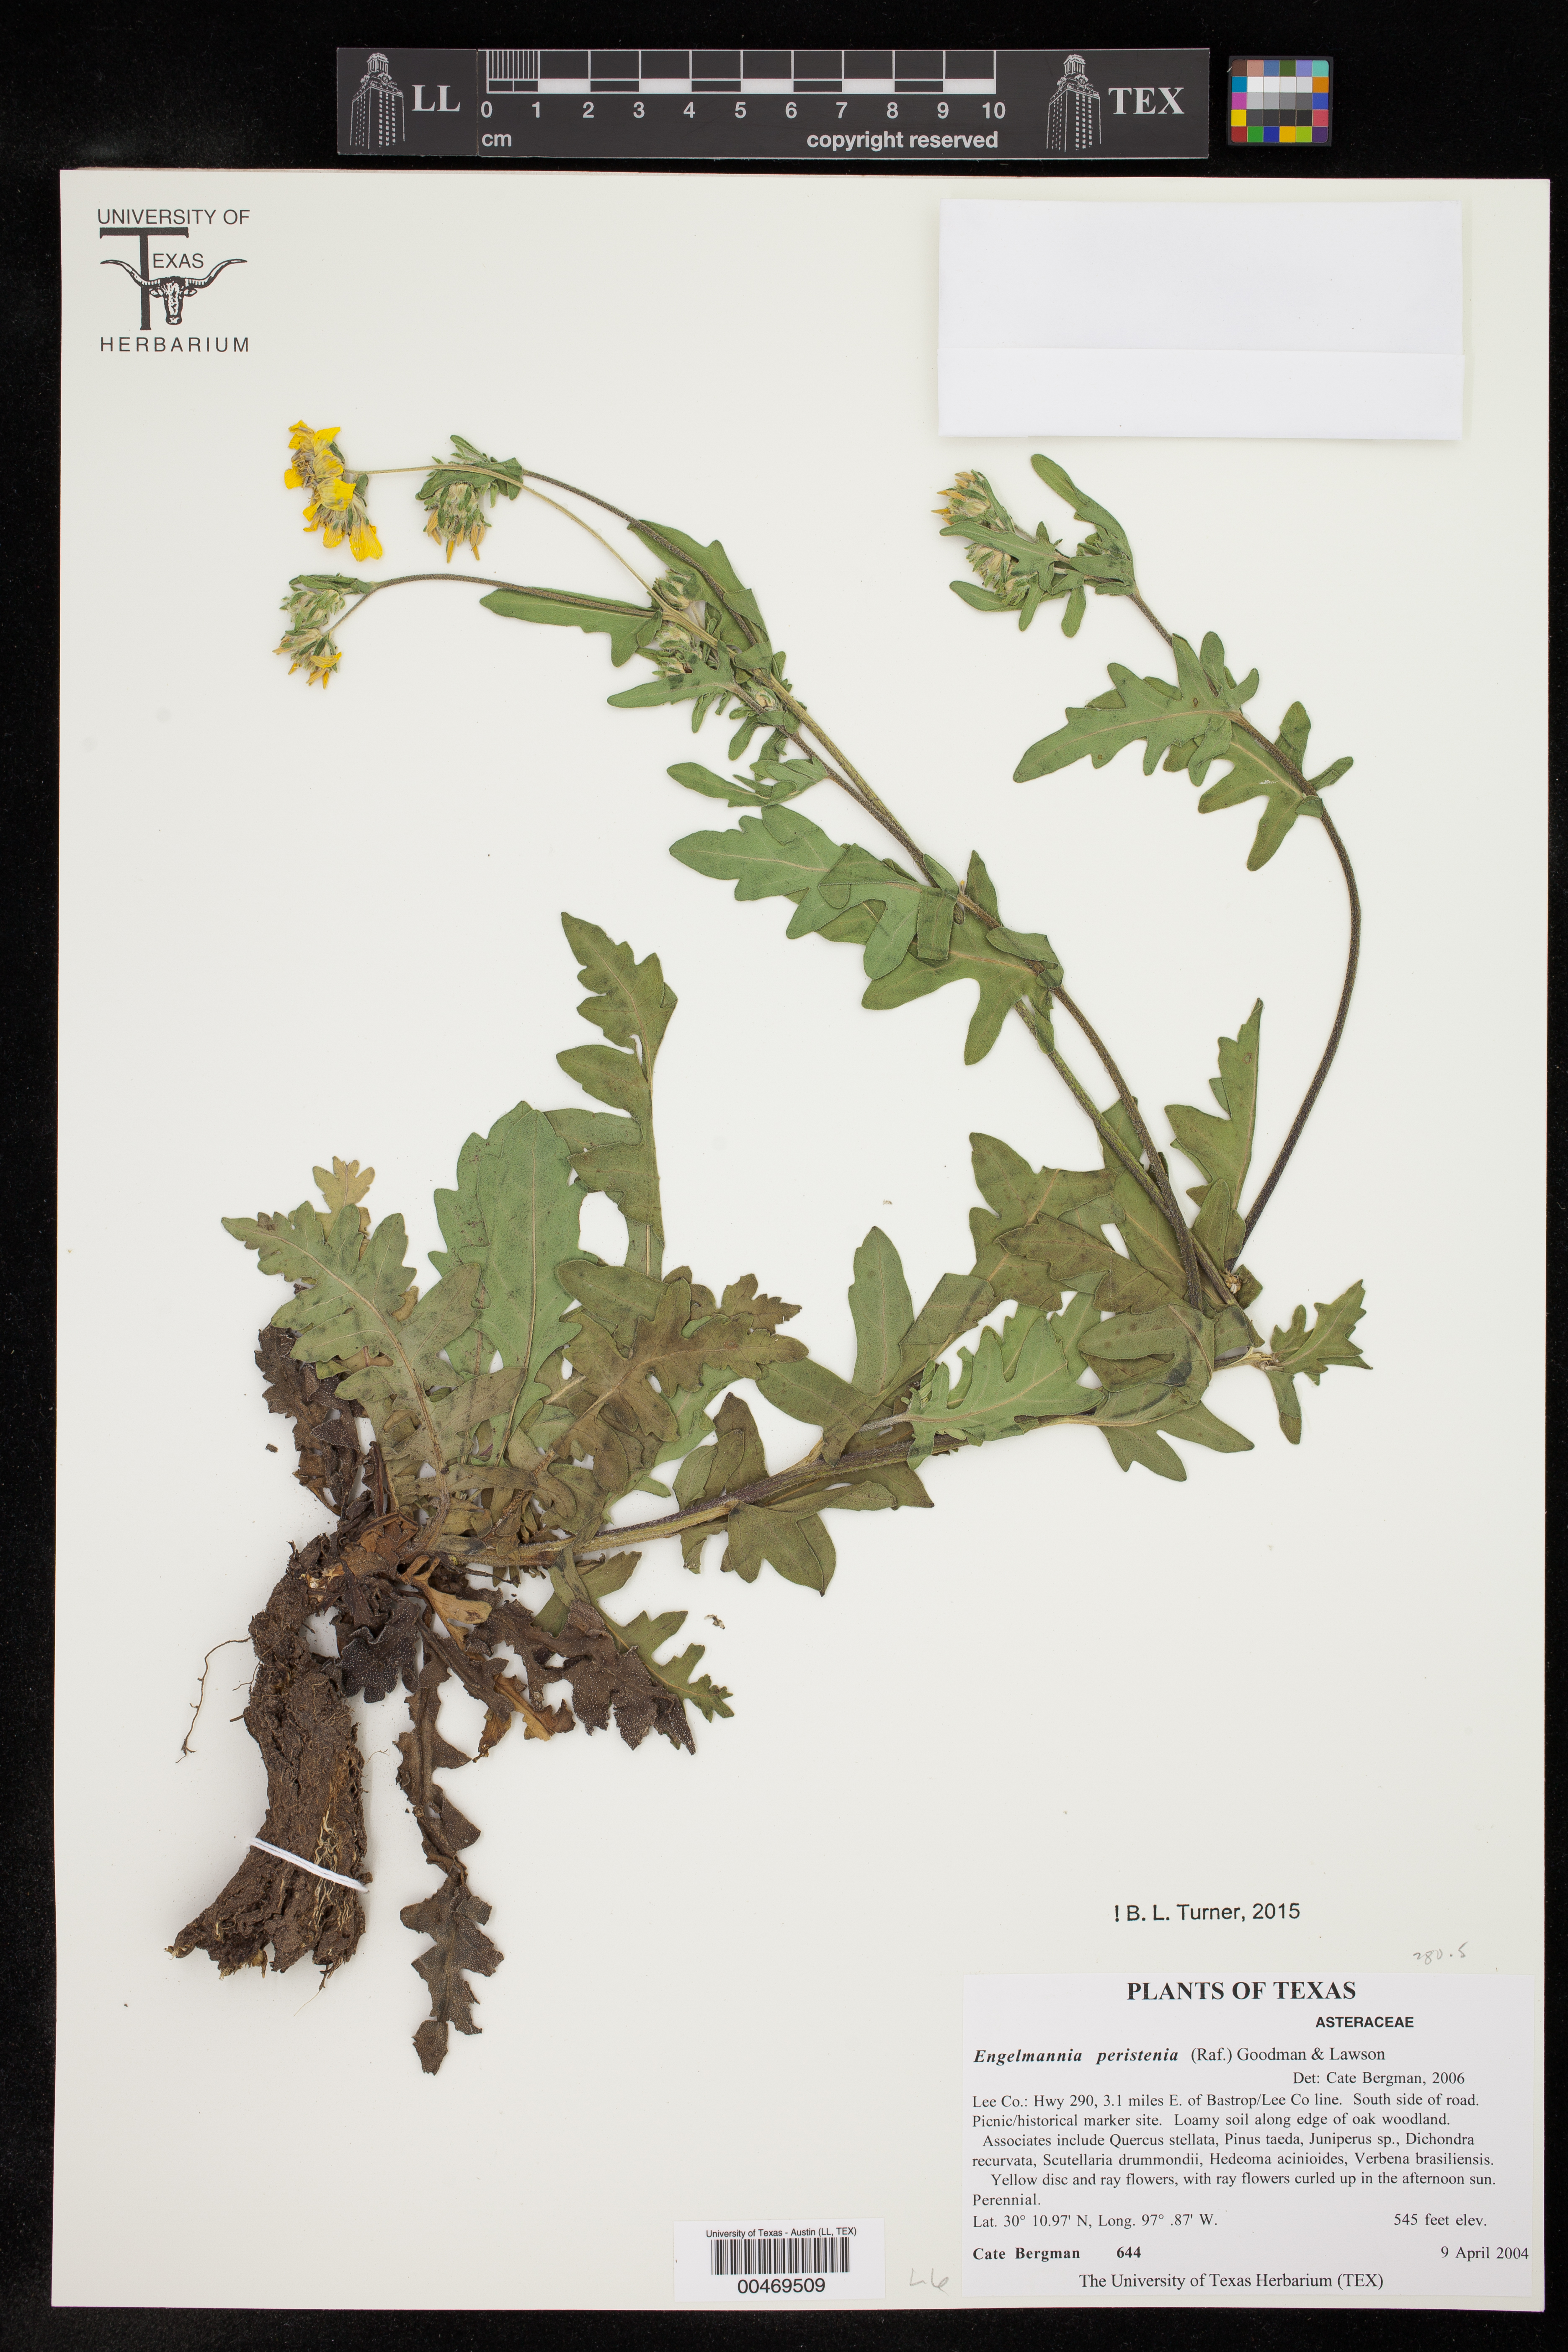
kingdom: Plantae
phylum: Tracheophyta
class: Magnoliopsida
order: Asterales
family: Asteraceae
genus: Engelmannia
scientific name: Engelmannia peristenia
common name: Engelmann's daisy
